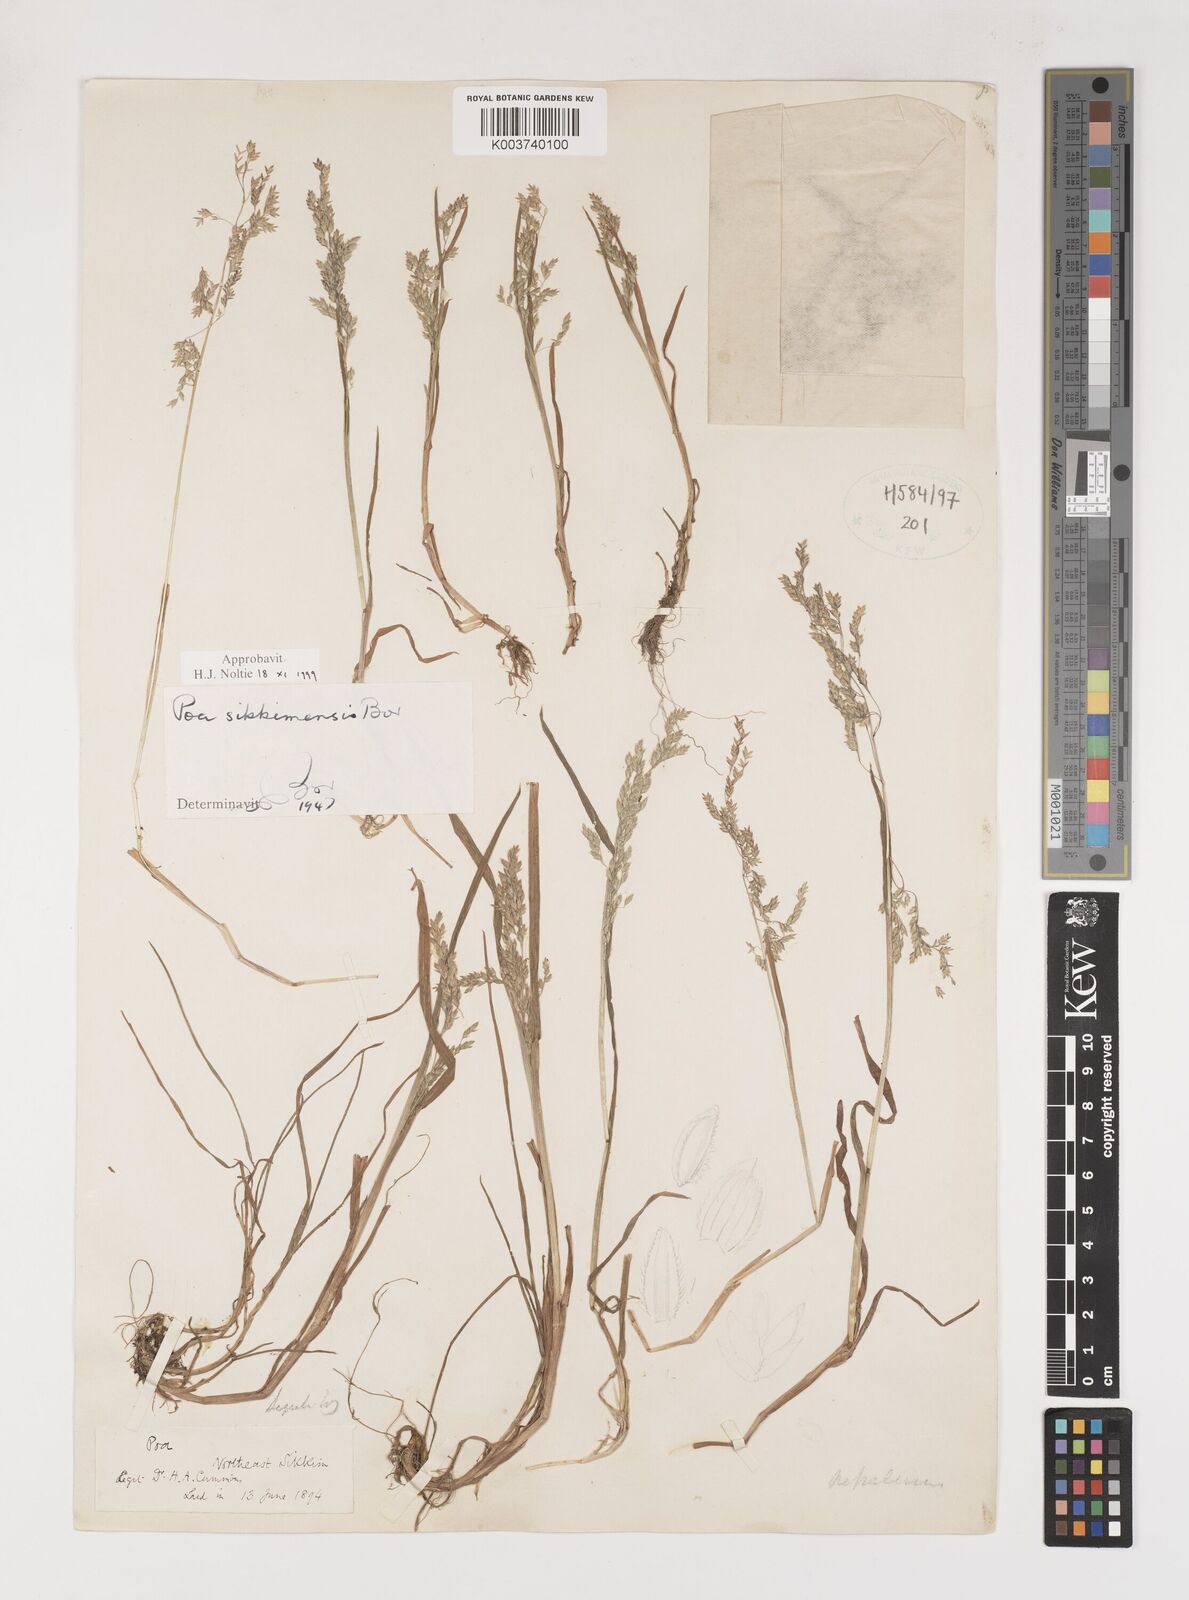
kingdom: Plantae
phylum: Tracheophyta
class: Liliopsida
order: Poales
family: Poaceae
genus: Poa
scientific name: Poa sikkimensis
